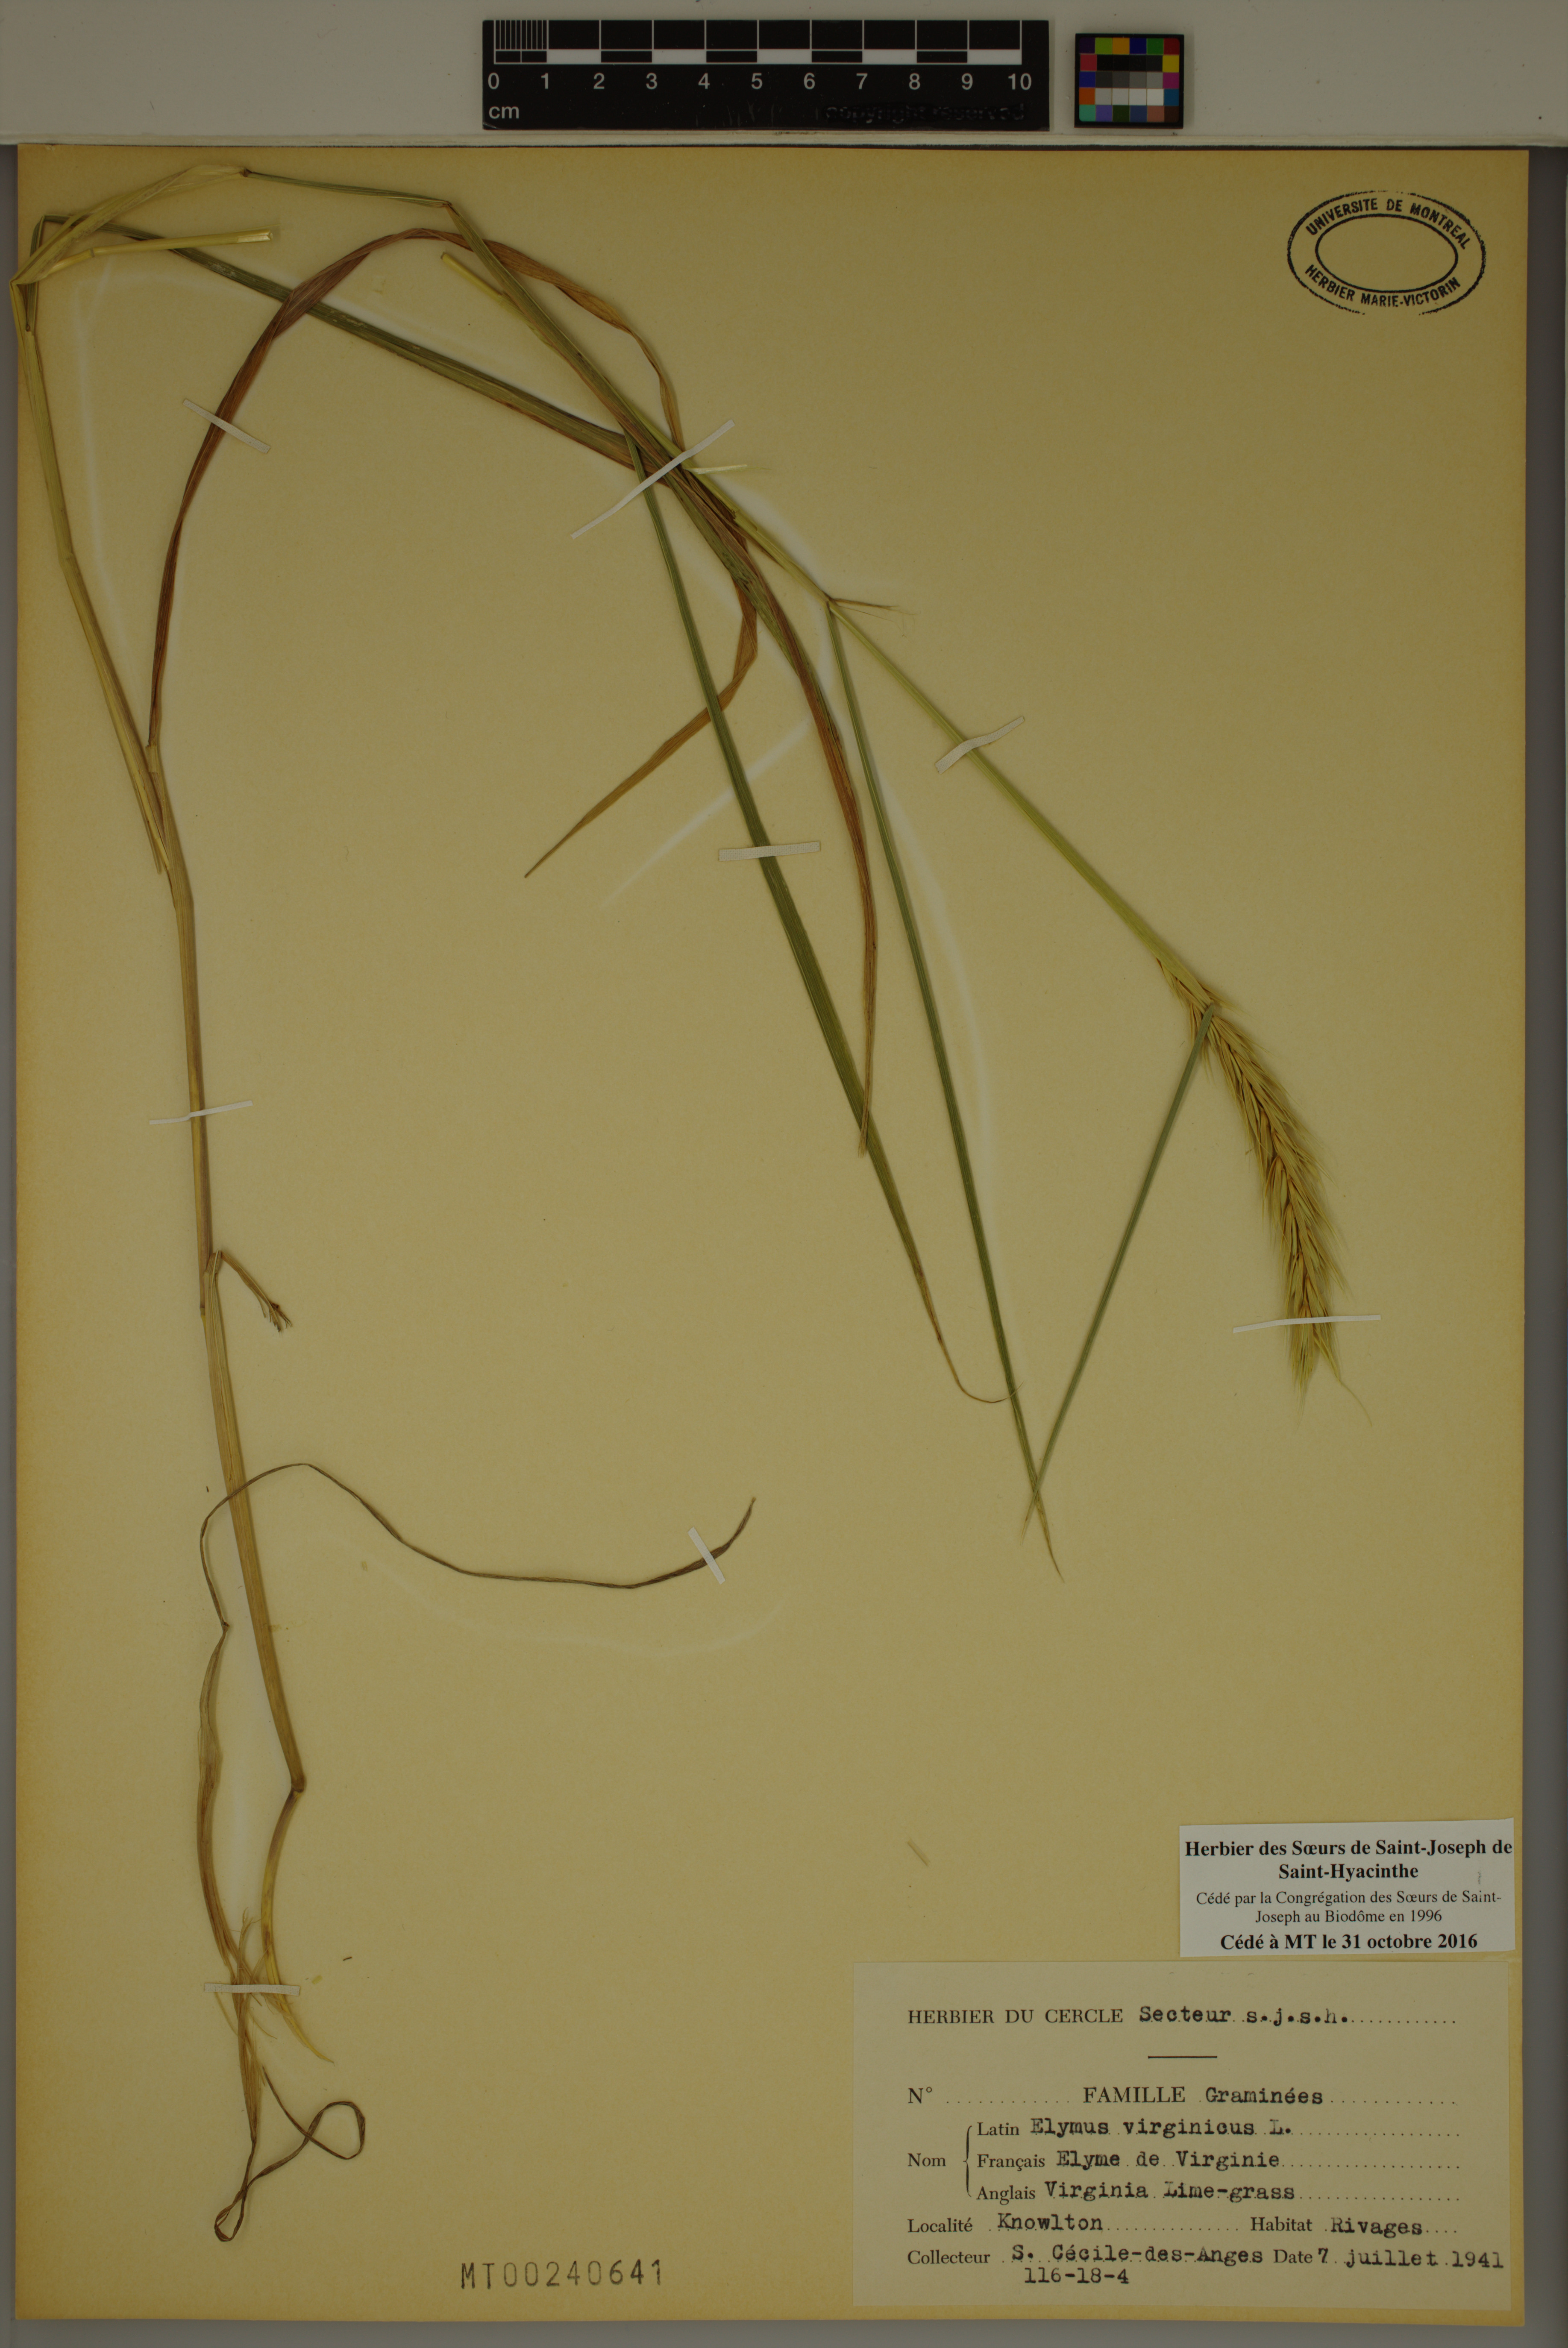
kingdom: Plantae
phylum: Tracheophyta
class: Liliopsida
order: Poales
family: Poaceae
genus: Elymus
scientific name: Elymus virginicus
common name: Common eastern wildrye
